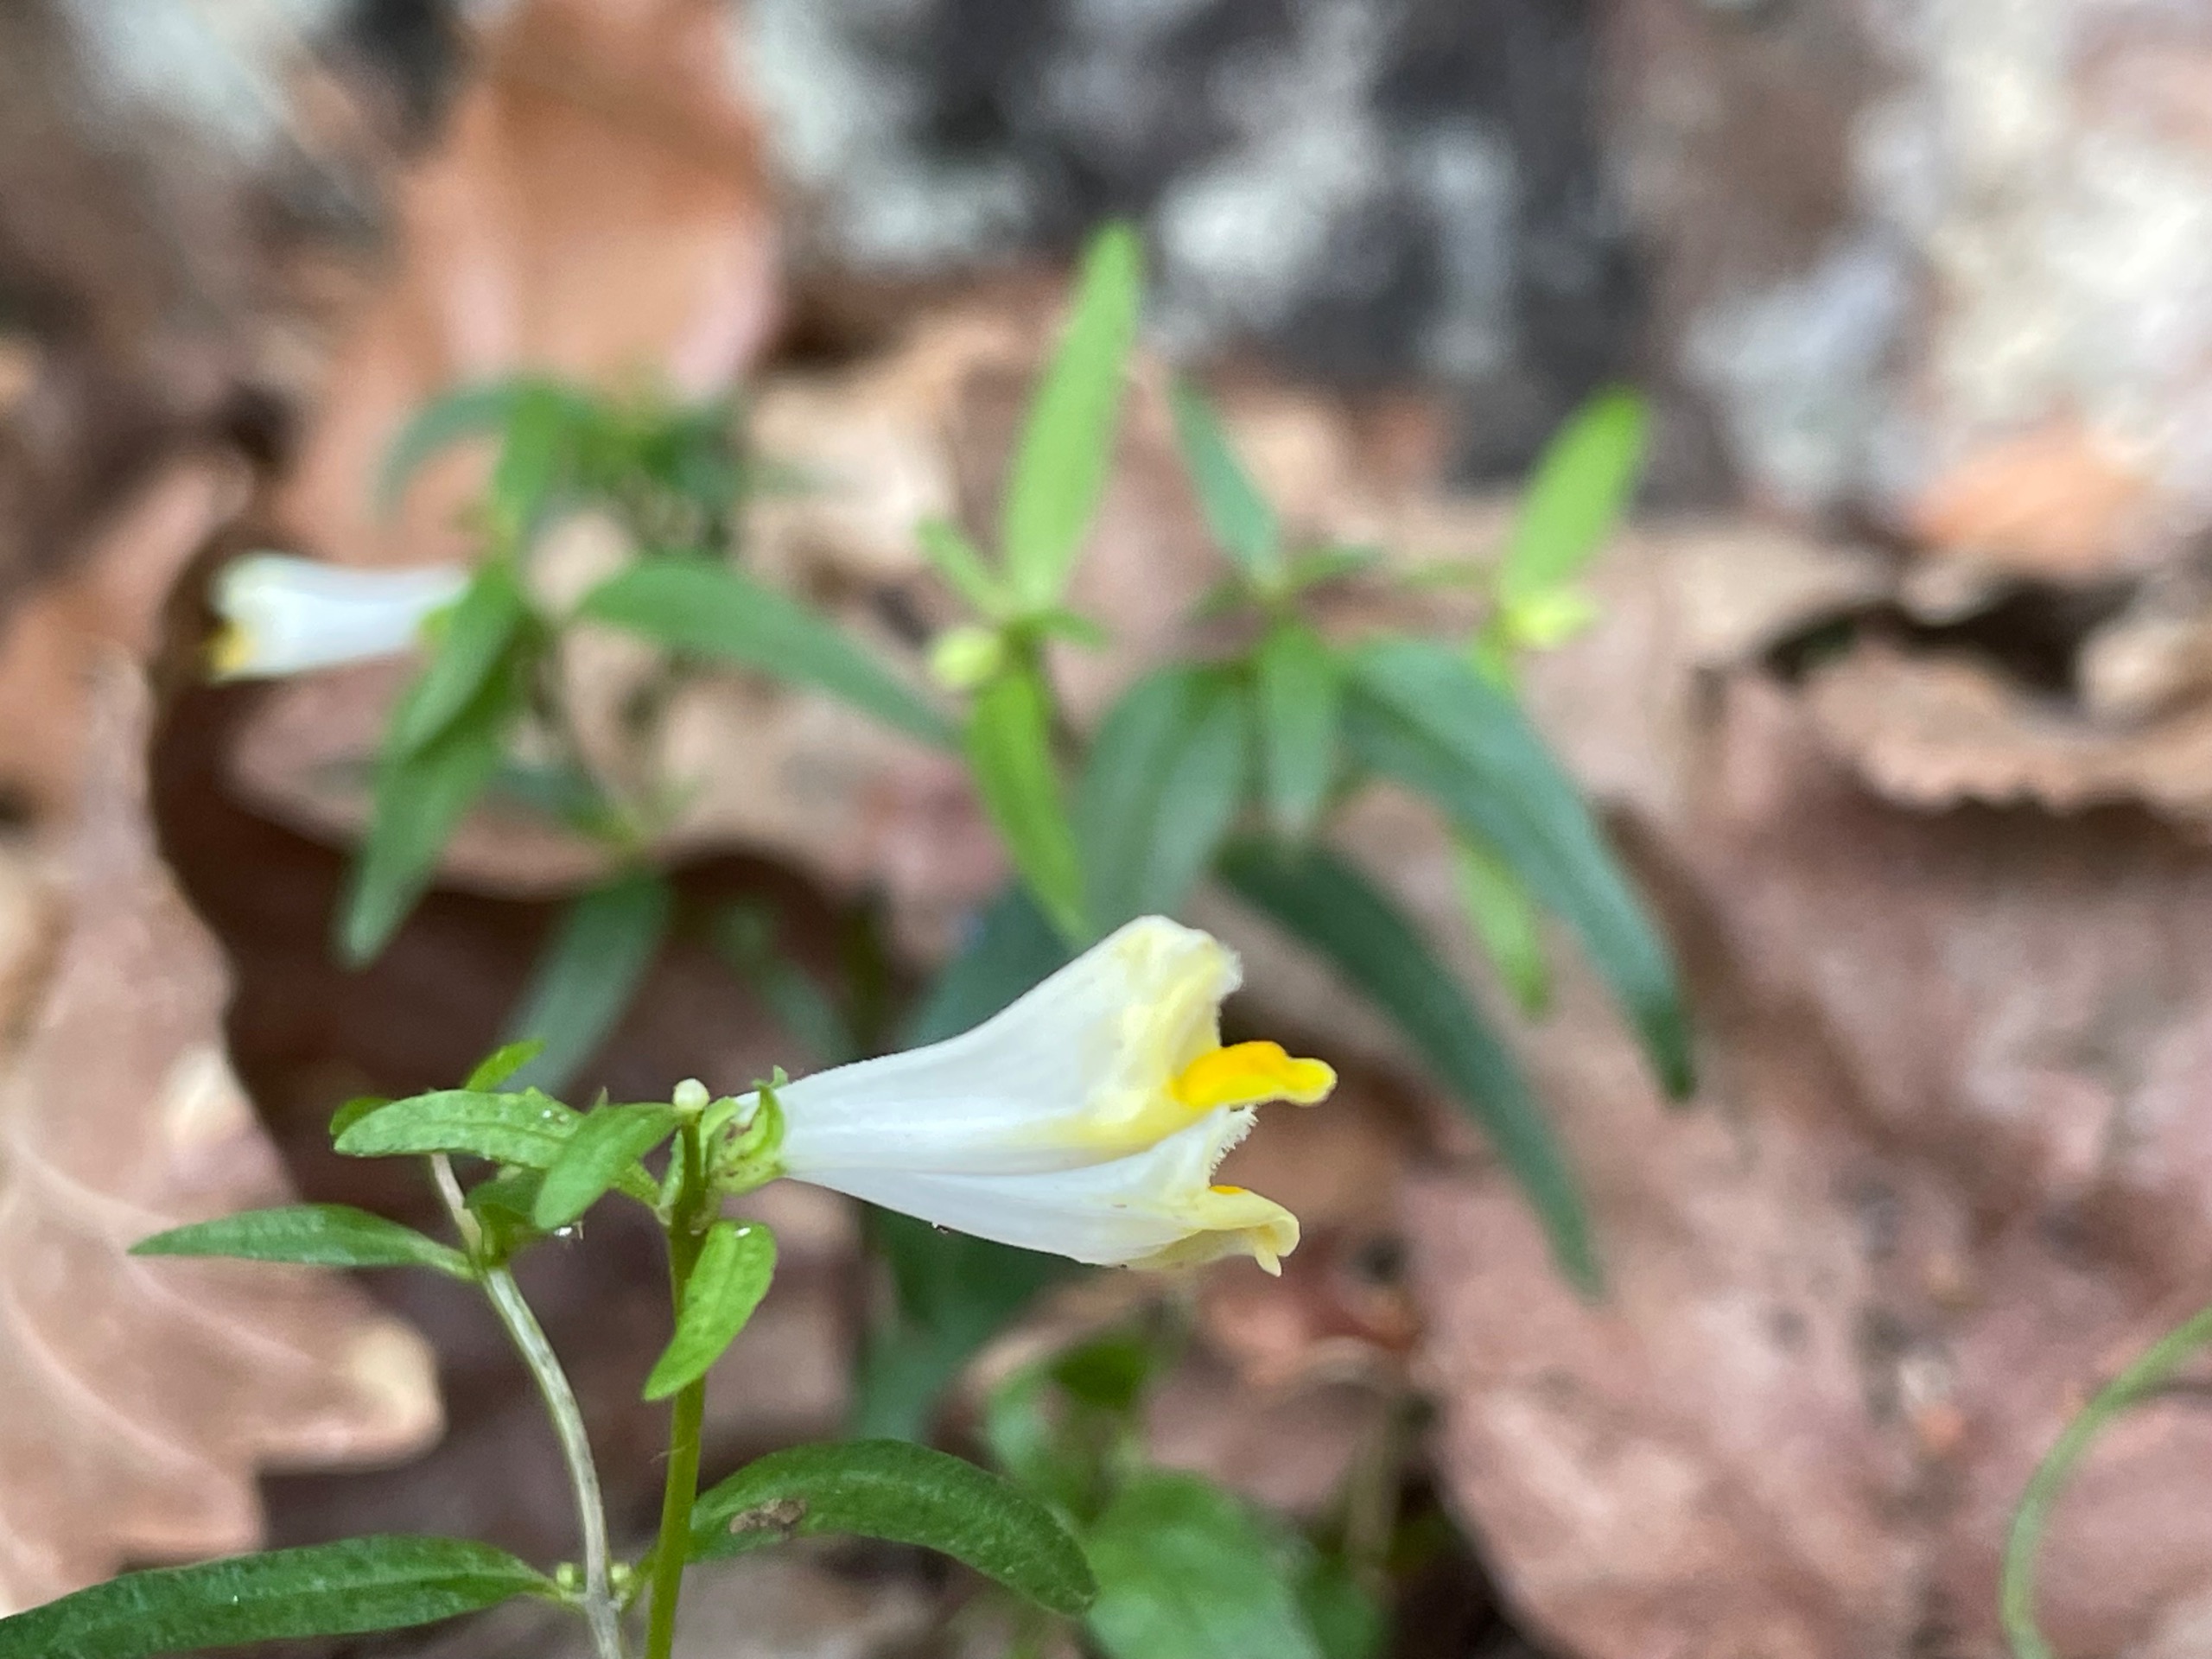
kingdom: Plantae
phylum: Tracheophyta
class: Magnoliopsida
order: Lamiales
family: Orobanchaceae
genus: Melampyrum
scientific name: Melampyrum pratense
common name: Almindelig kohvede
